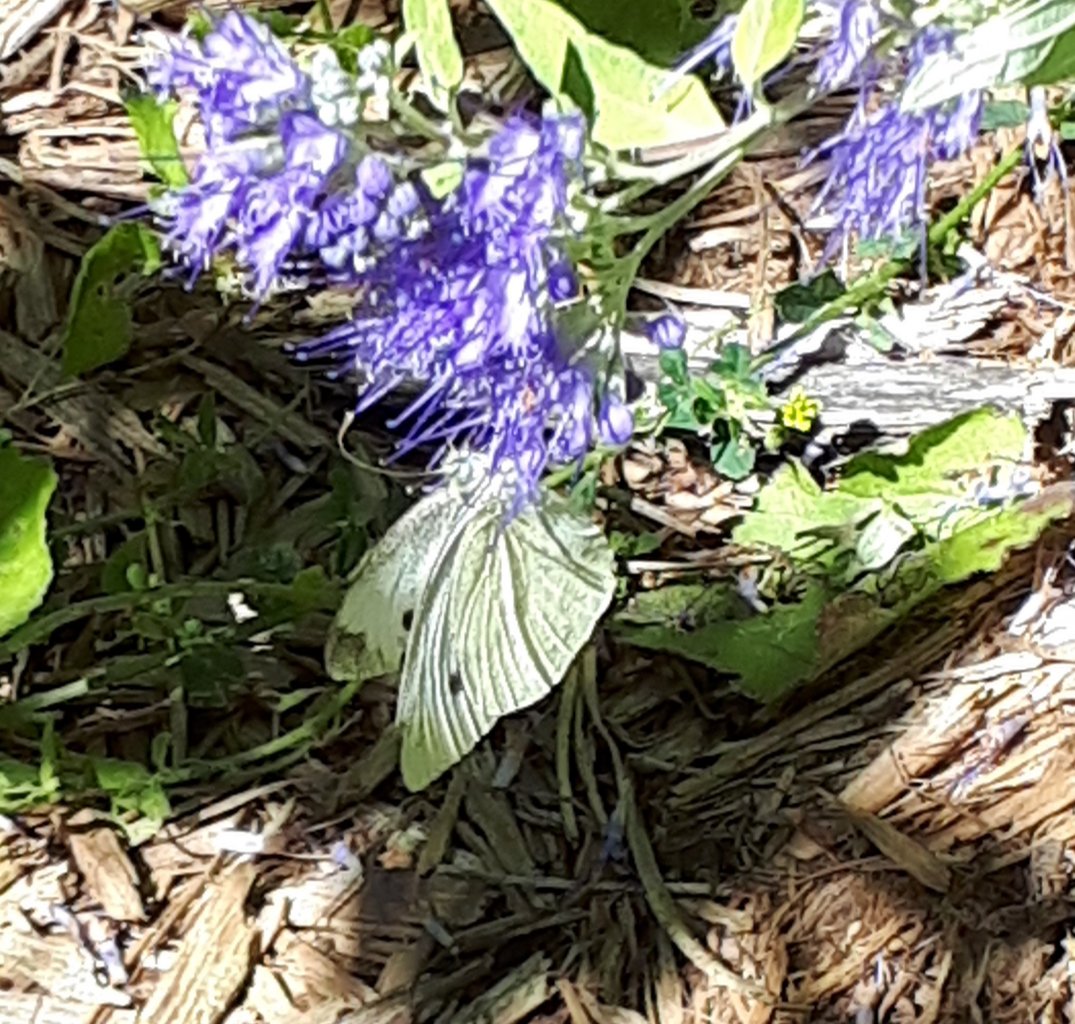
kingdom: Animalia
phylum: Arthropoda
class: Insecta
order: Lepidoptera
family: Pieridae
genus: Pieris
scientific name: Pieris rapae
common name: Cabbage White
